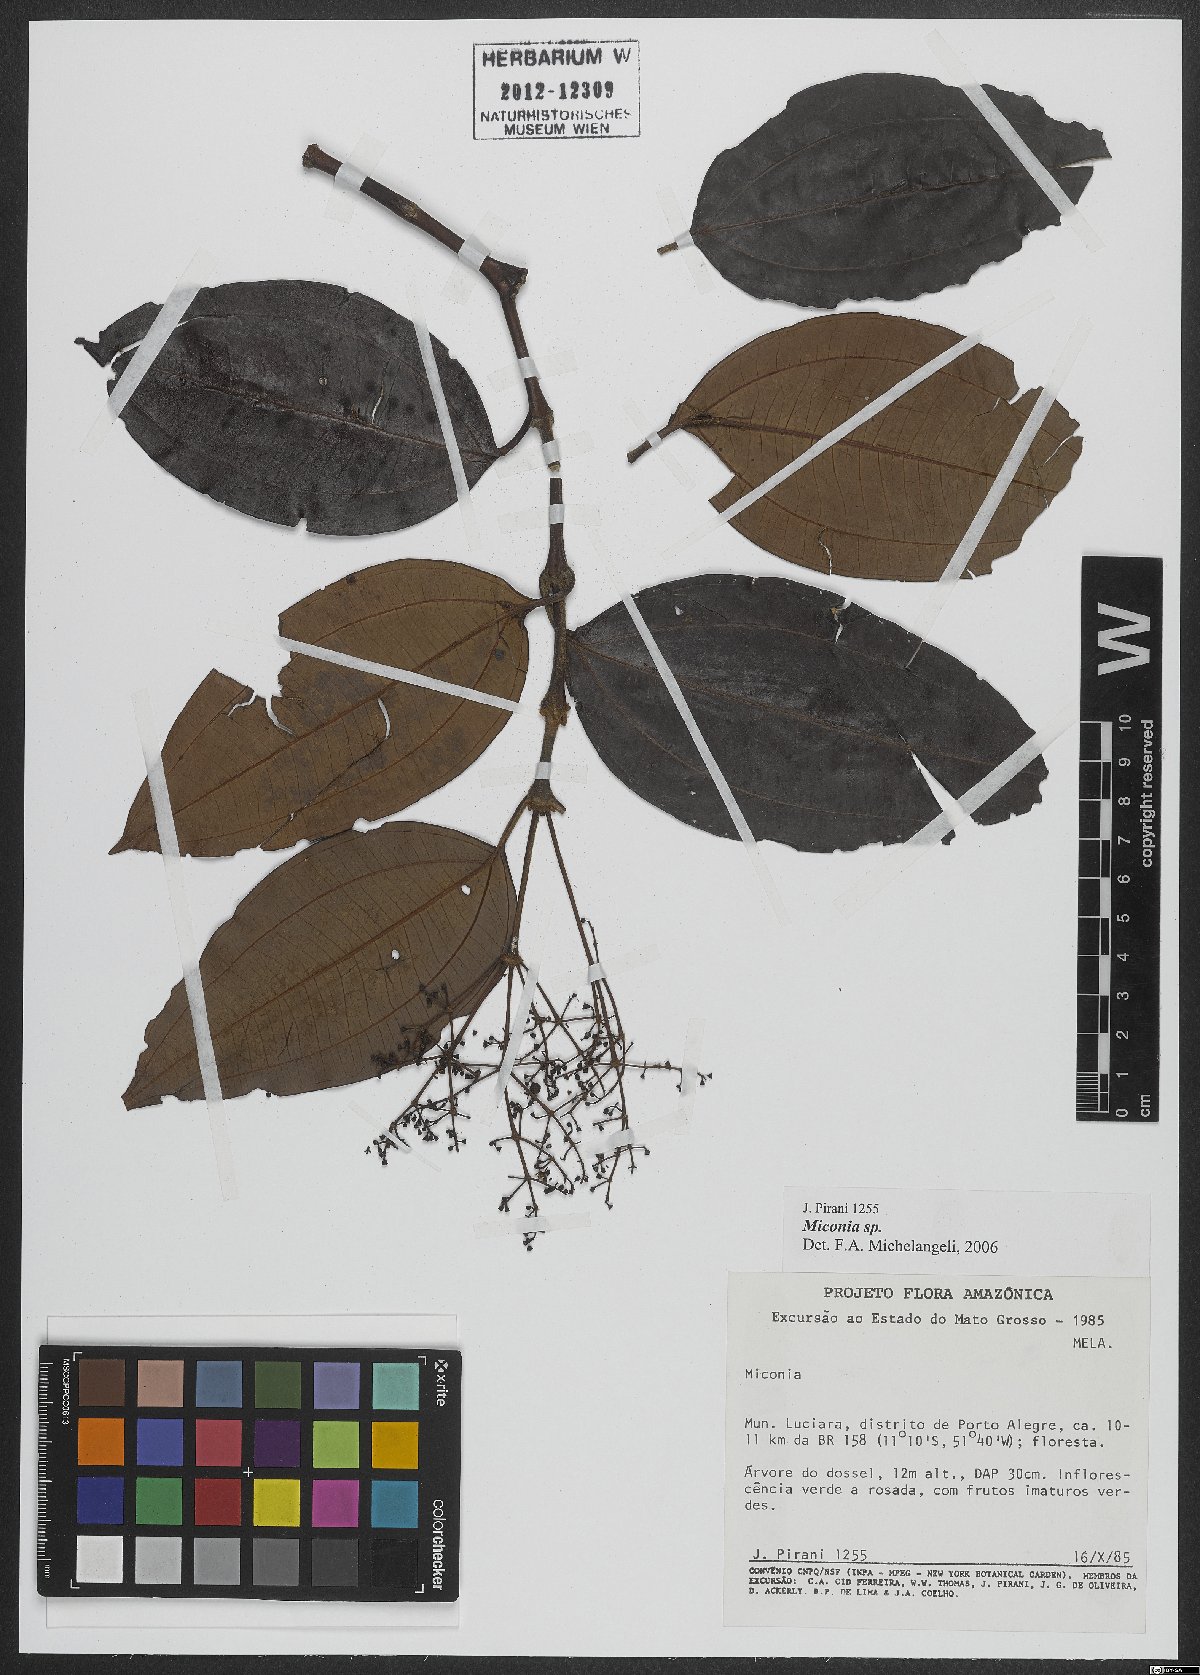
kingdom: Plantae
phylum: Tracheophyta
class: Magnoliopsida
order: Myrtales
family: Melastomataceae
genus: Miconia
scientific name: Miconia
